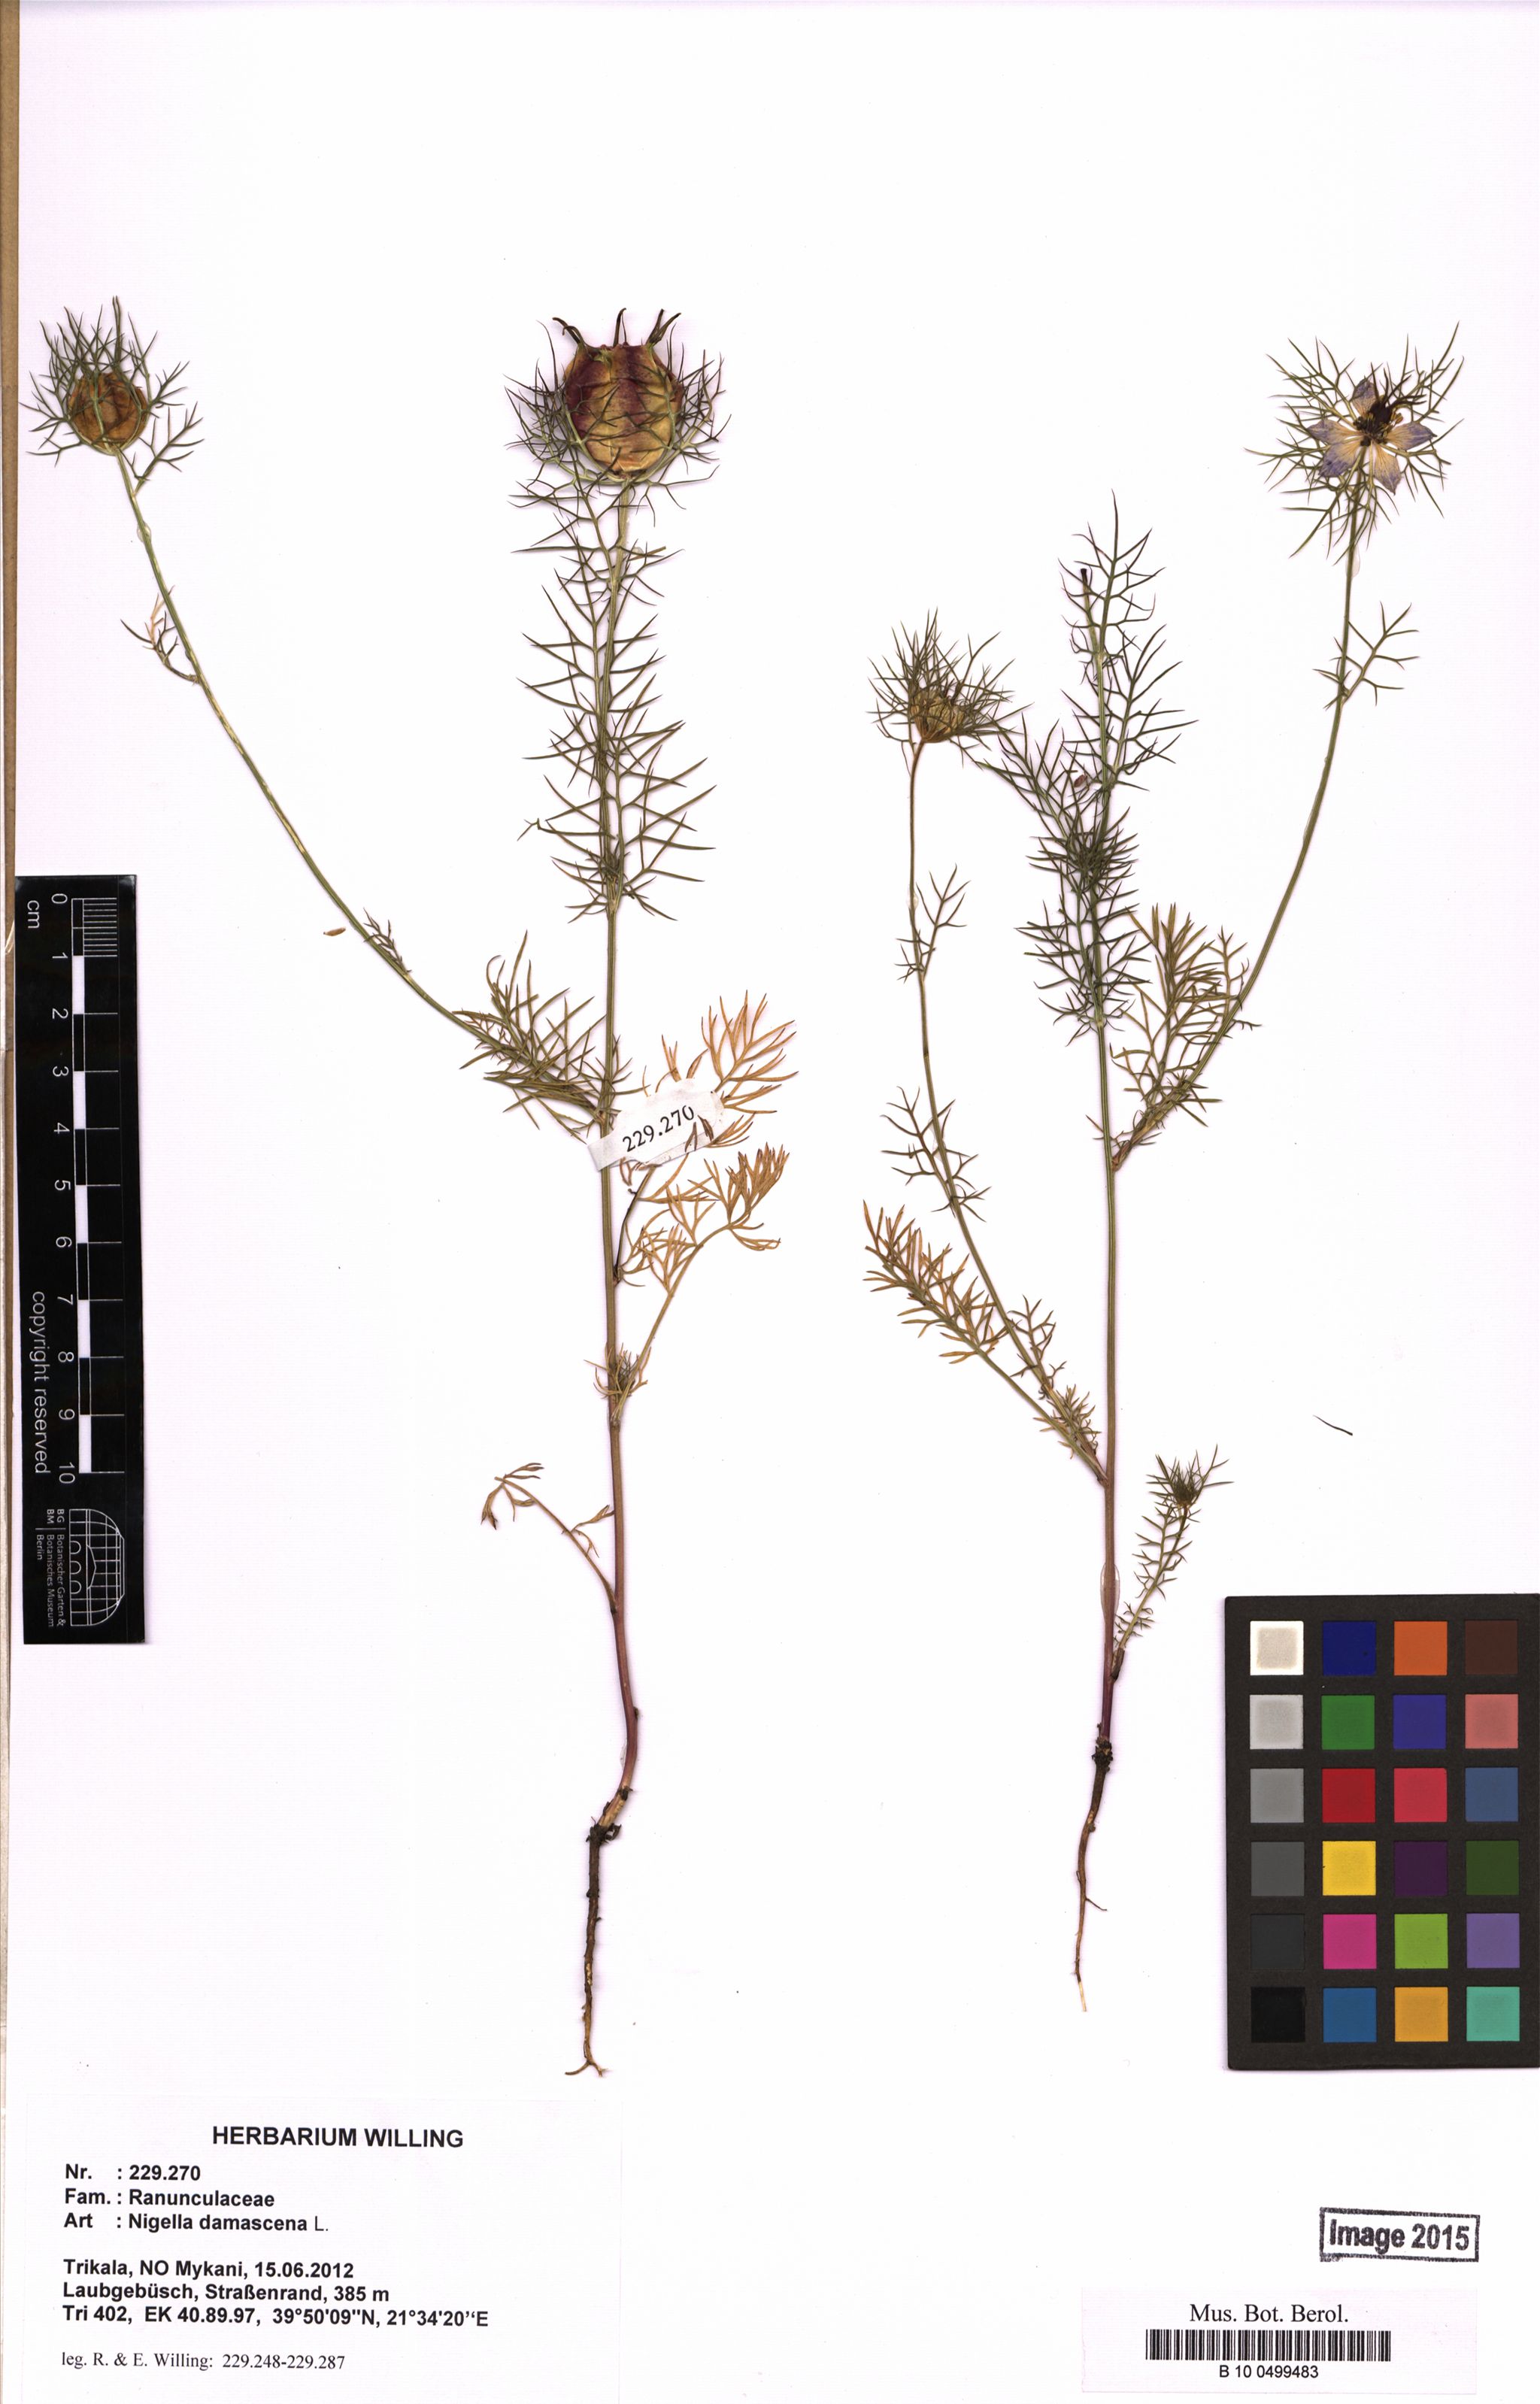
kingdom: Plantae
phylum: Tracheophyta
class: Magnoliopsida
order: Ranunculales
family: Ranunculaceae
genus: Nigella
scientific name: Nigella damascena
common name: Love-in-a-mist
